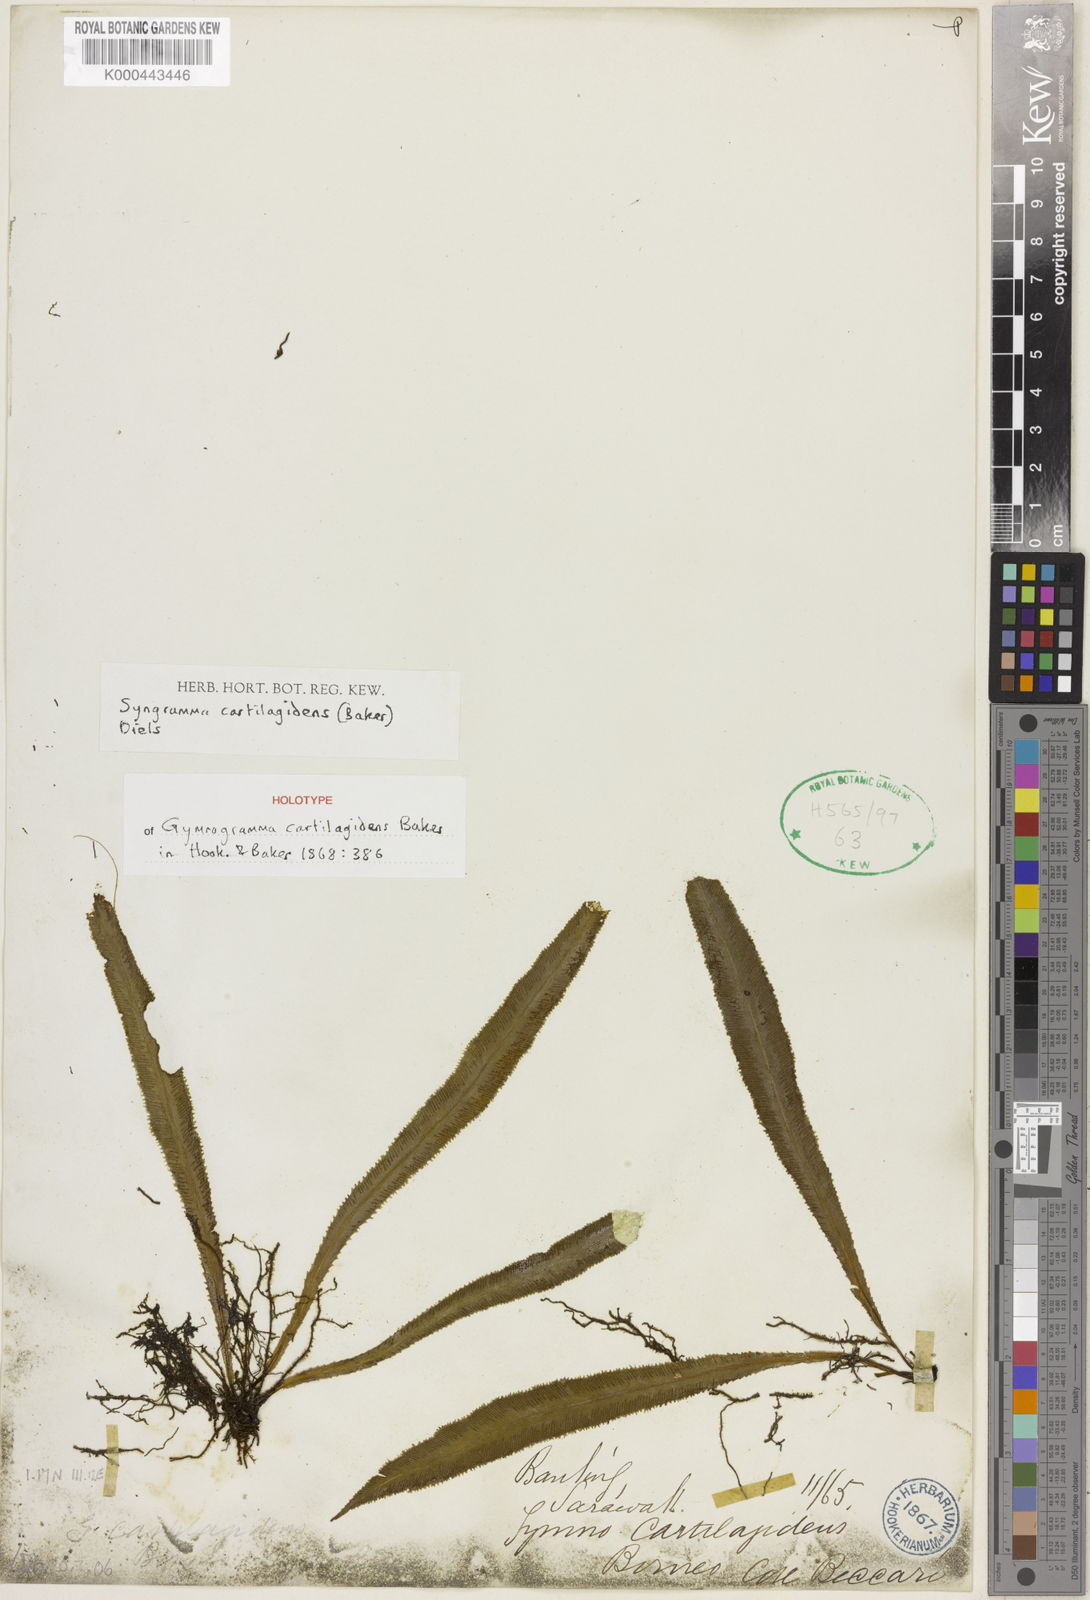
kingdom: Plantae
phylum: Tracheophyta
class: Polypodiopsida
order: Polypodiales
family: Pteridaceae
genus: Syngramma
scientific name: Syngramma cartilagidens
